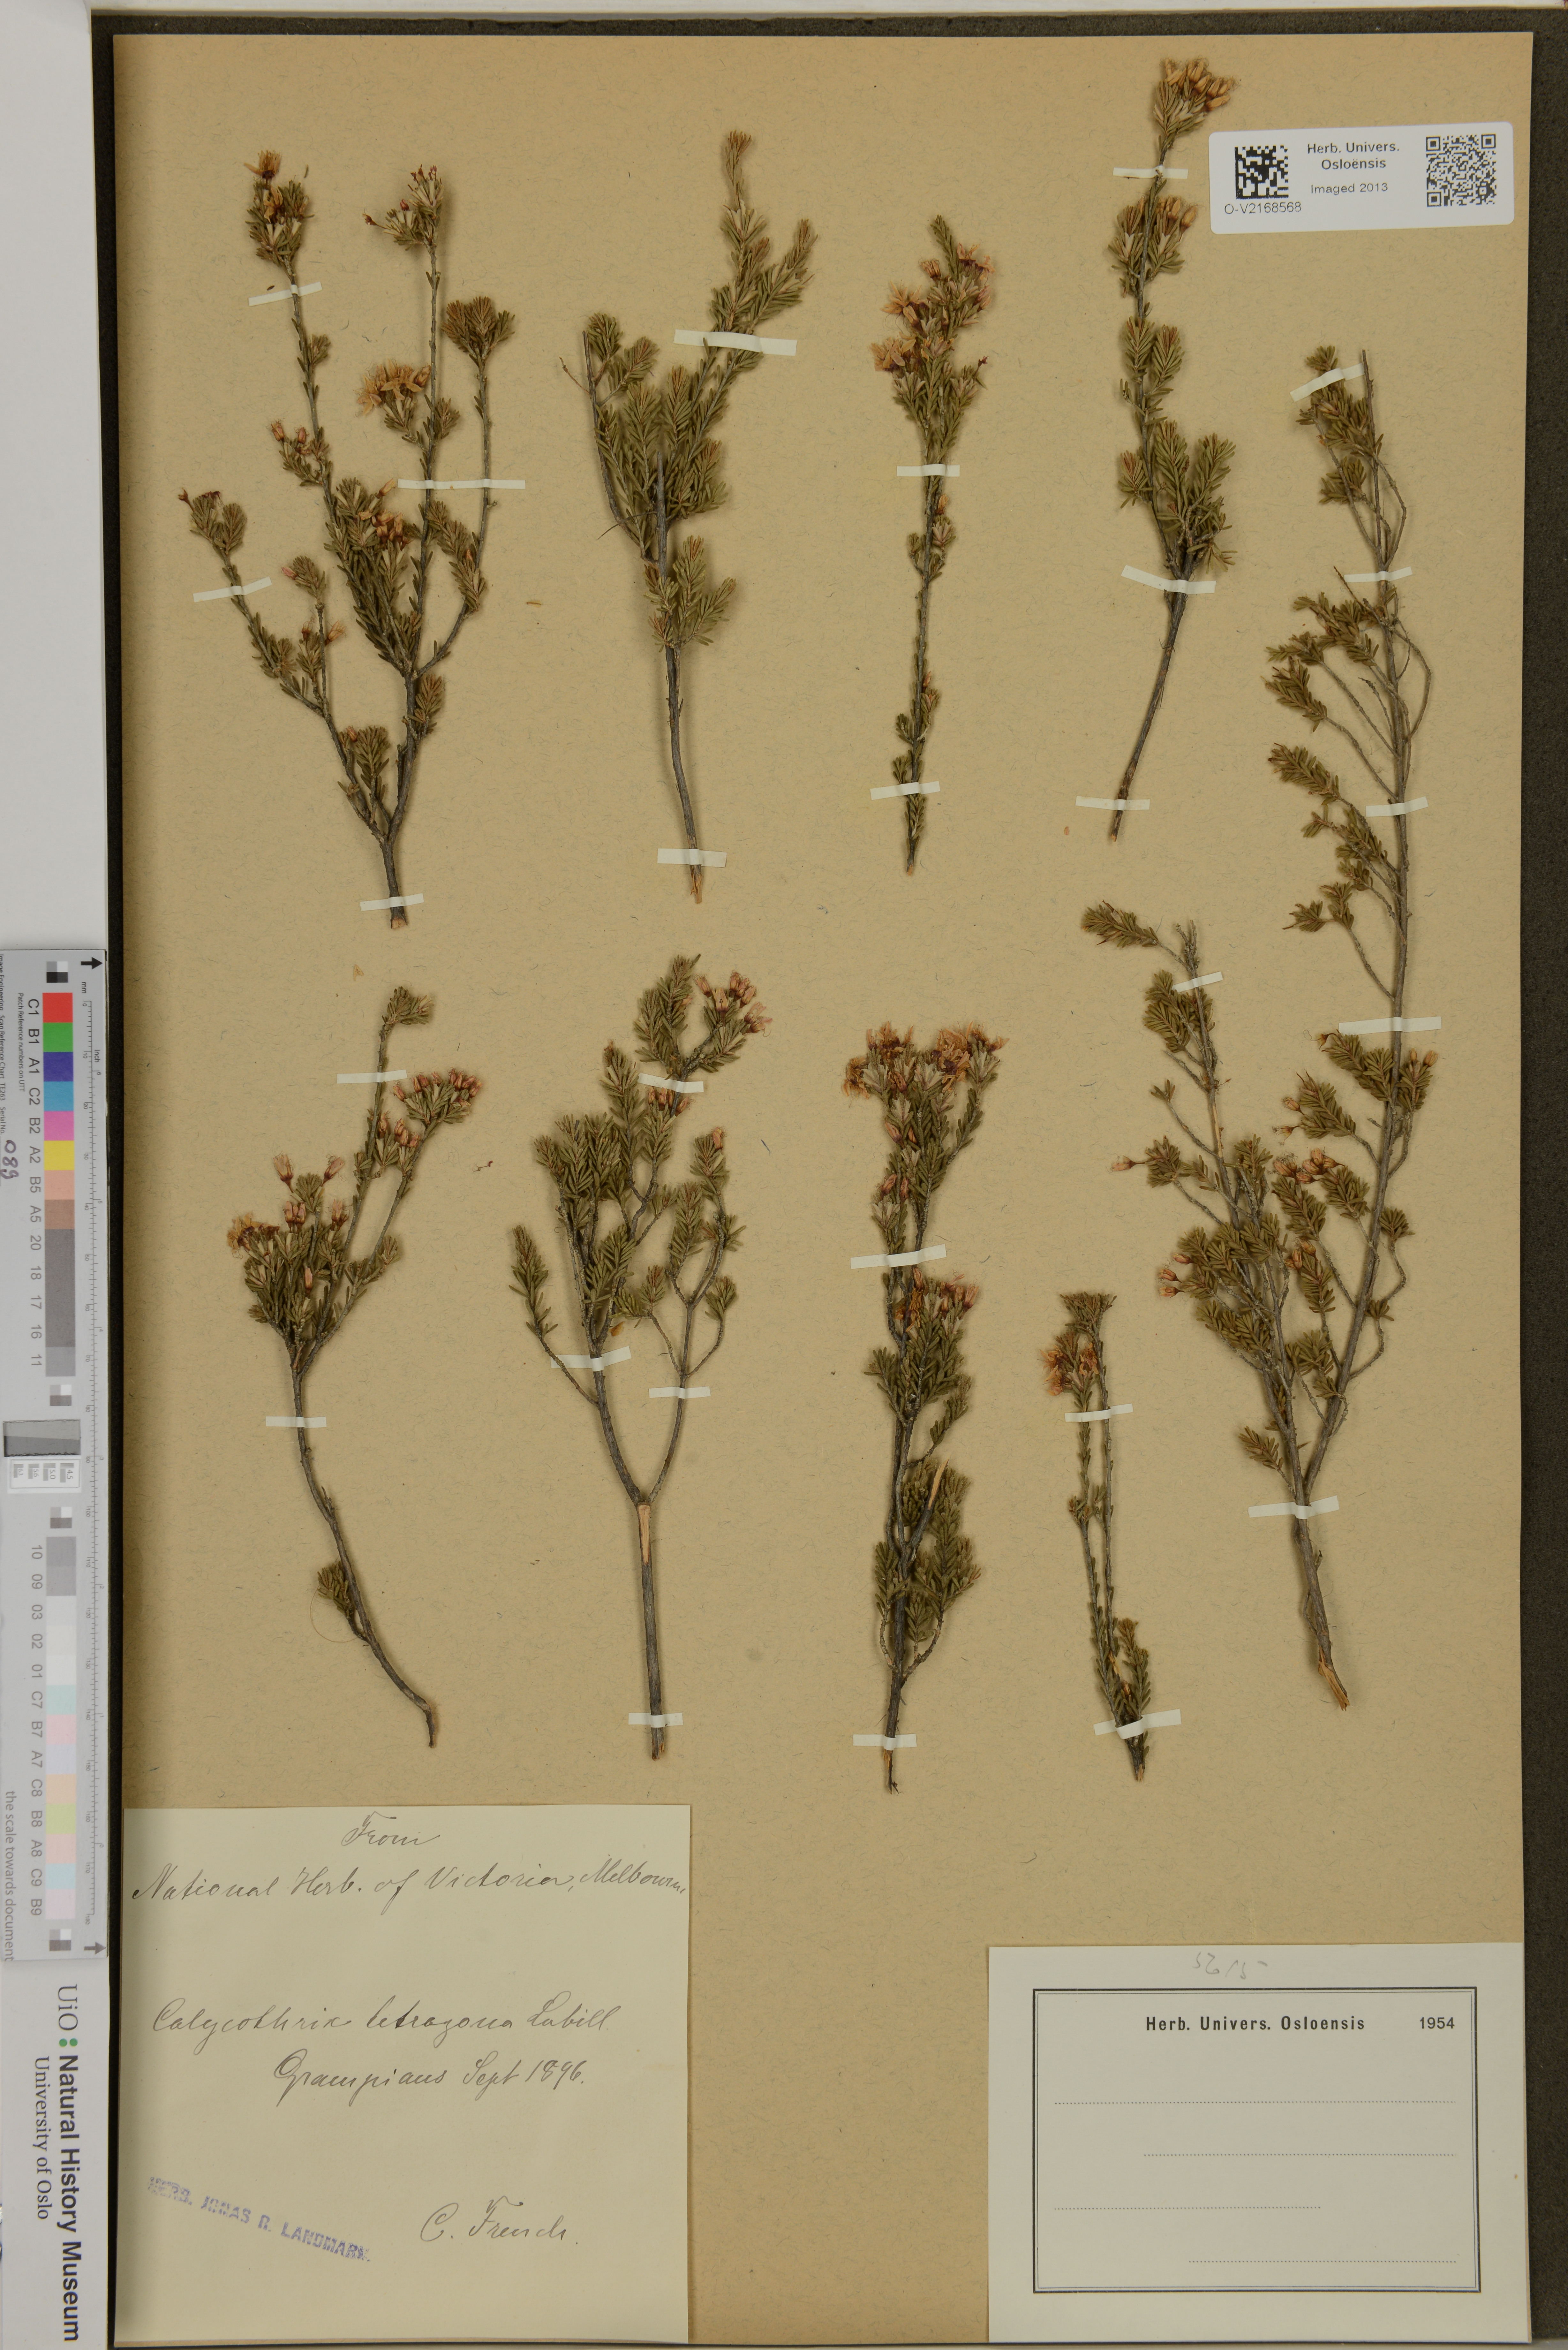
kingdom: Plantae
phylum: Tracheophyta
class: Magnoliopsida
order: Myrtales
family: Myrtaceae
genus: Calytrix
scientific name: Calytrix tetragona
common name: Common fringe myrtle
